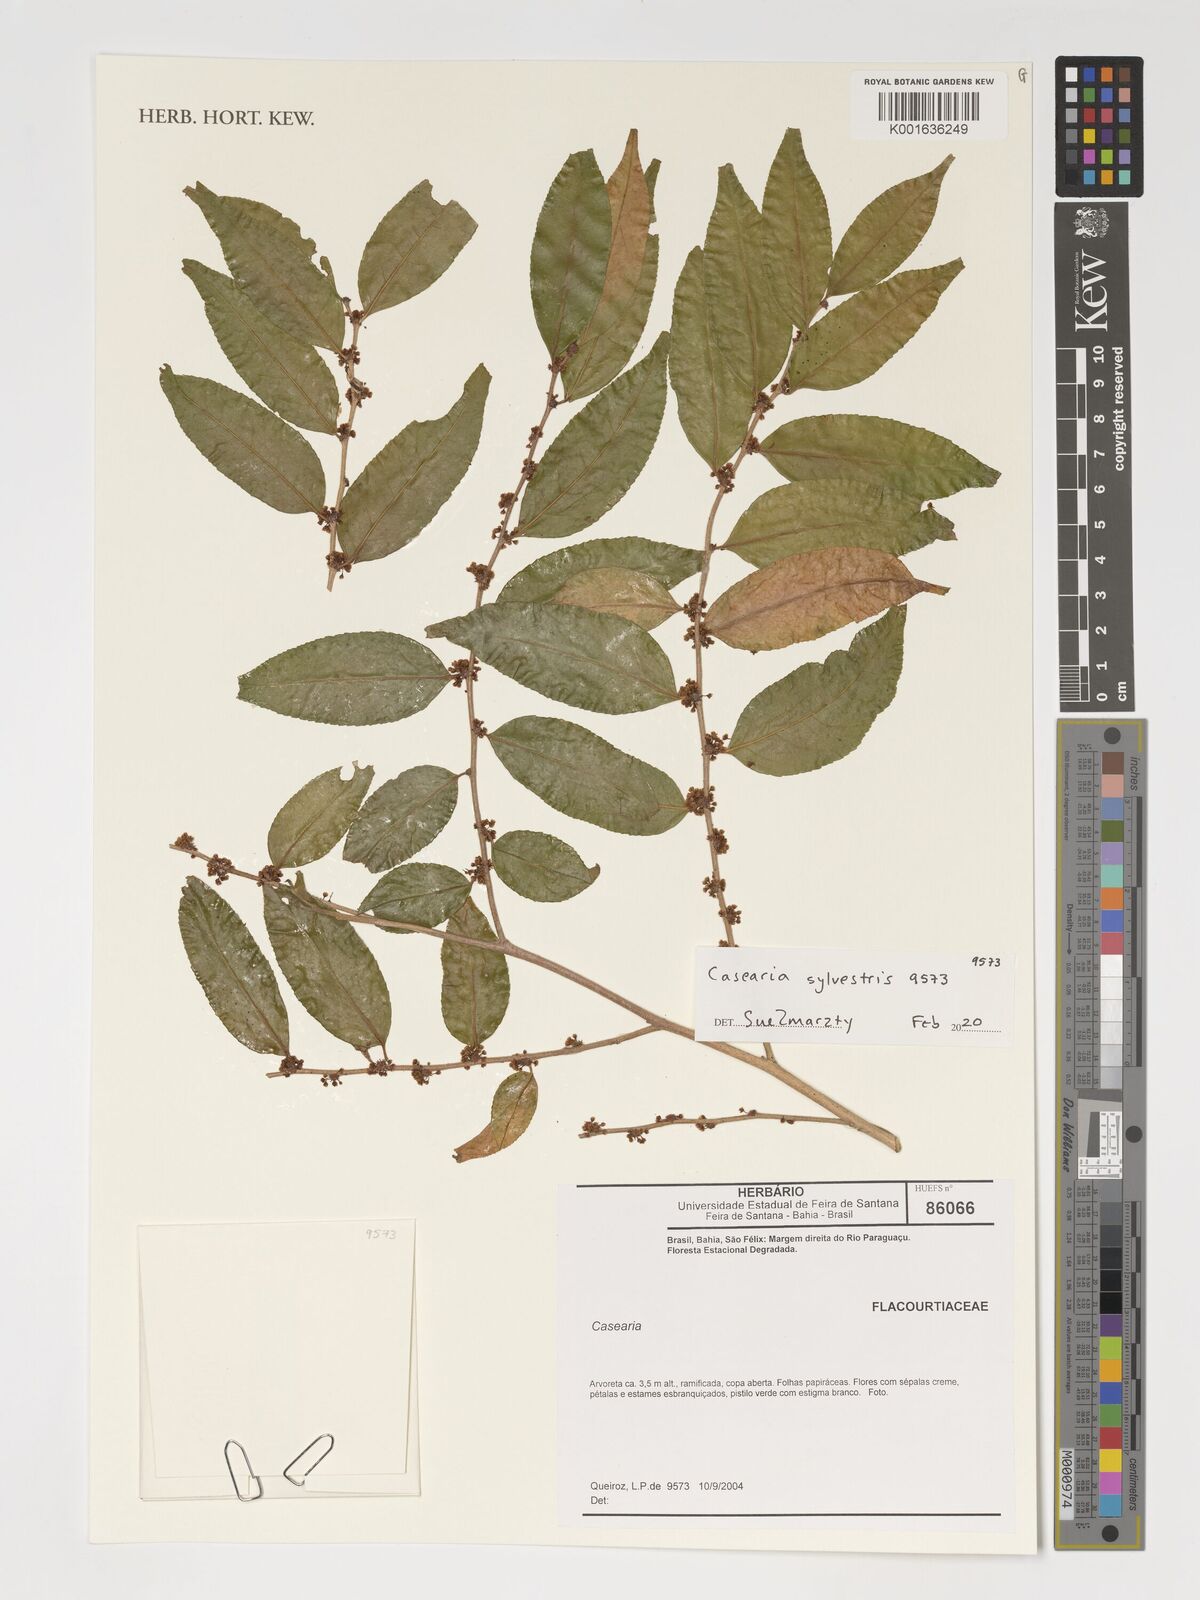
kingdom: Plantae
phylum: Tracheophyta
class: Magnoliopsida
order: Malpighiales
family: Salicaceae
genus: Casearia
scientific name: Casearia sylvestris
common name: Wild sage
